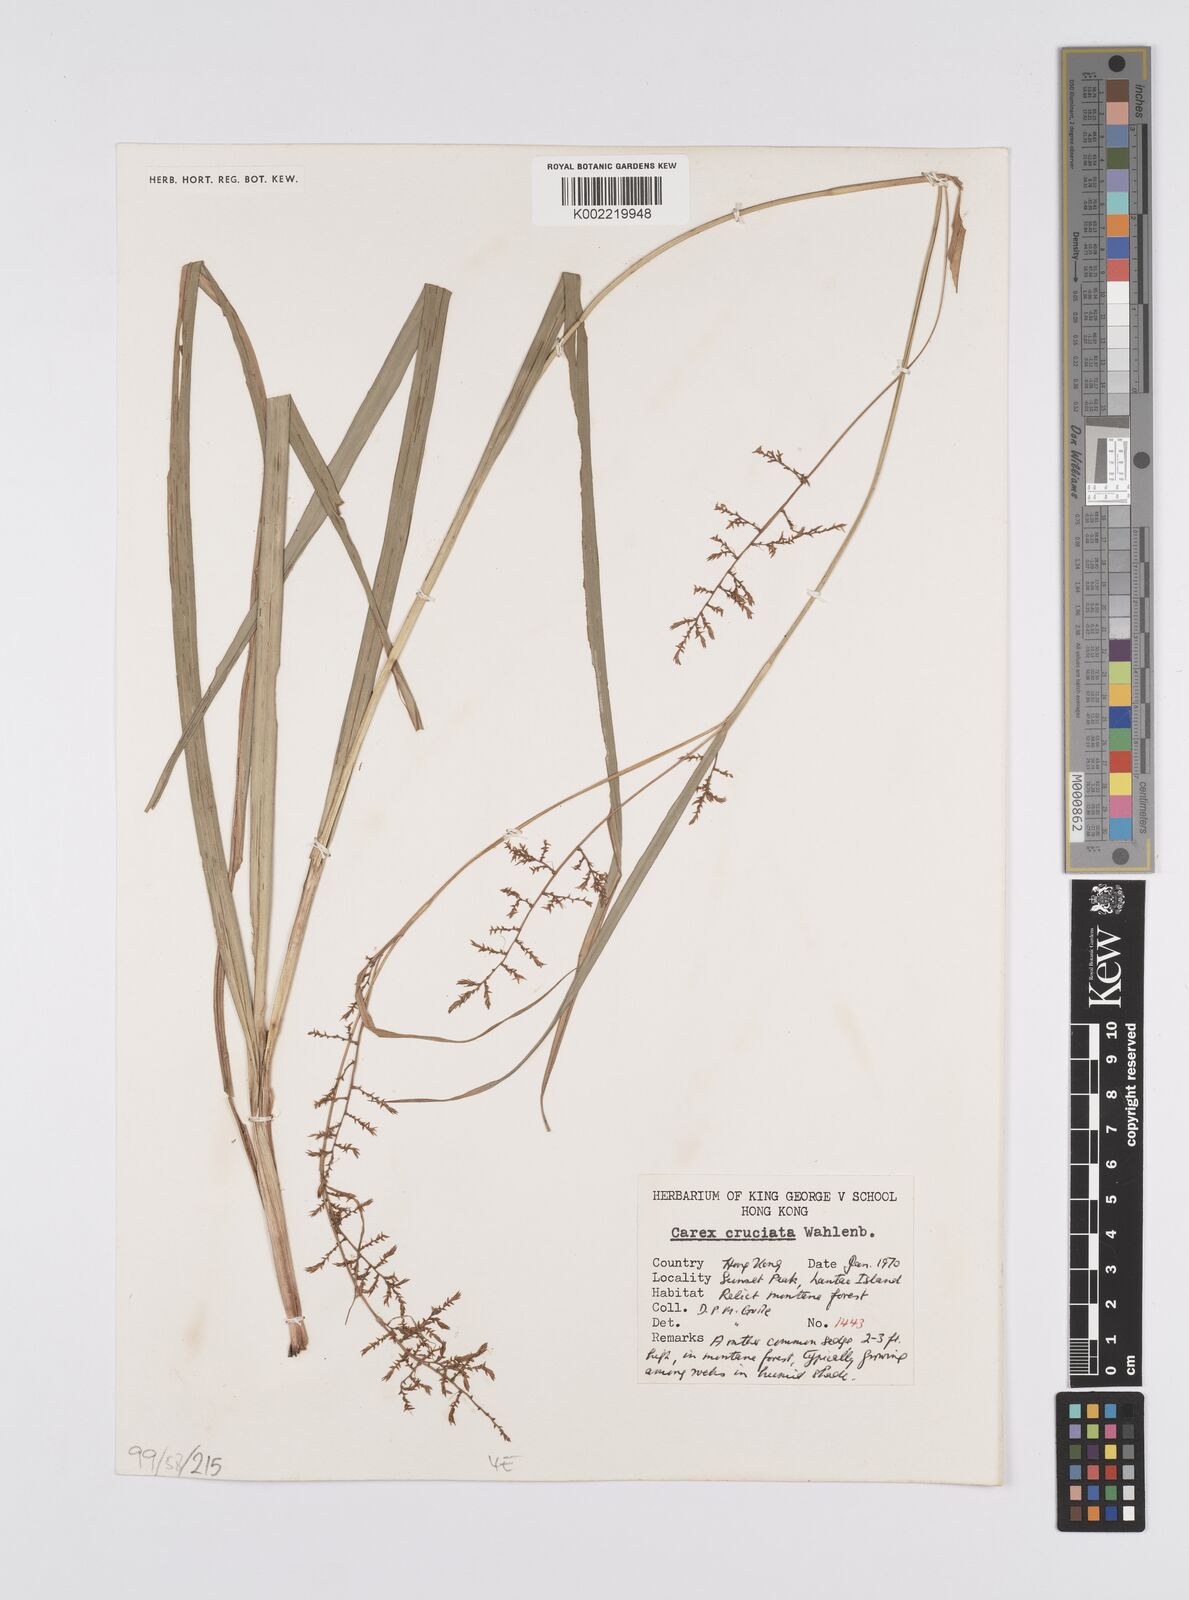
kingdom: Plantae
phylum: Tracheophyta
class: Liliopsida
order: Poales
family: Cyperaceae
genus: Carex
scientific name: Carex cruciata
